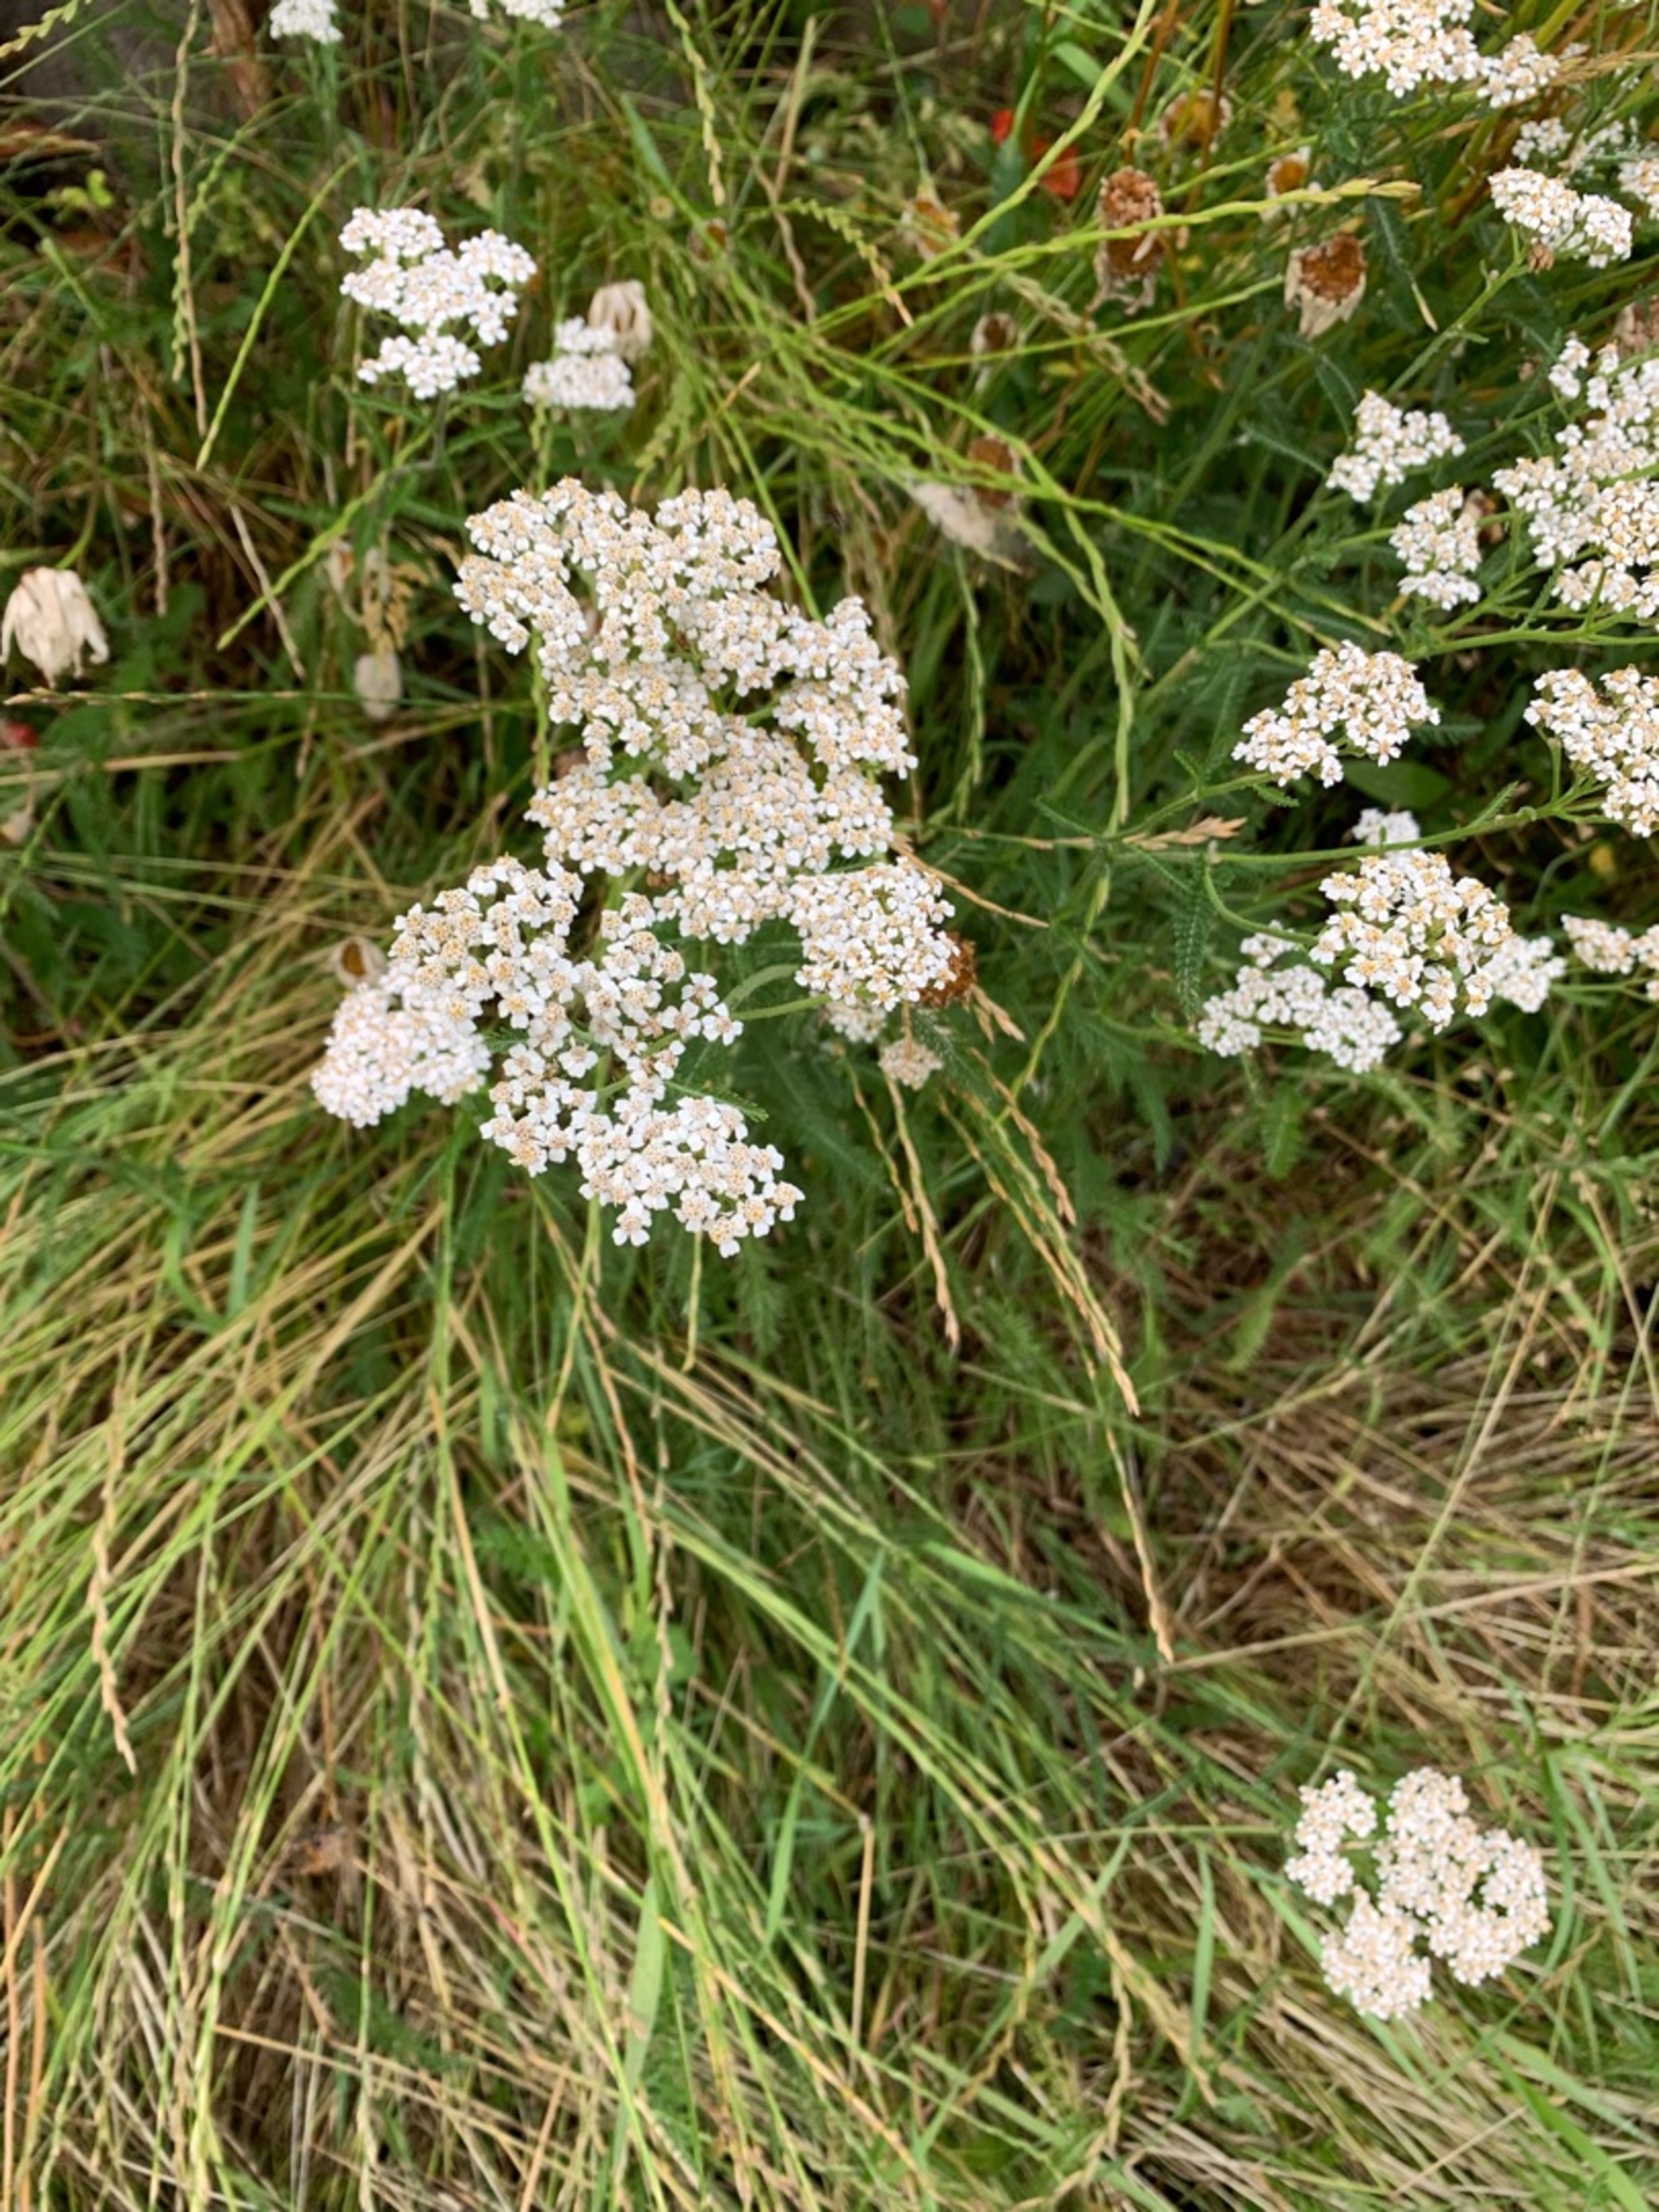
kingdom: Plantae
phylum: Tracheophyta
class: Magnoliopsida
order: Asterales
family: Asteraceae
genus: Achillea
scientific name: Achillea millefolium
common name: Almindelig røllike
